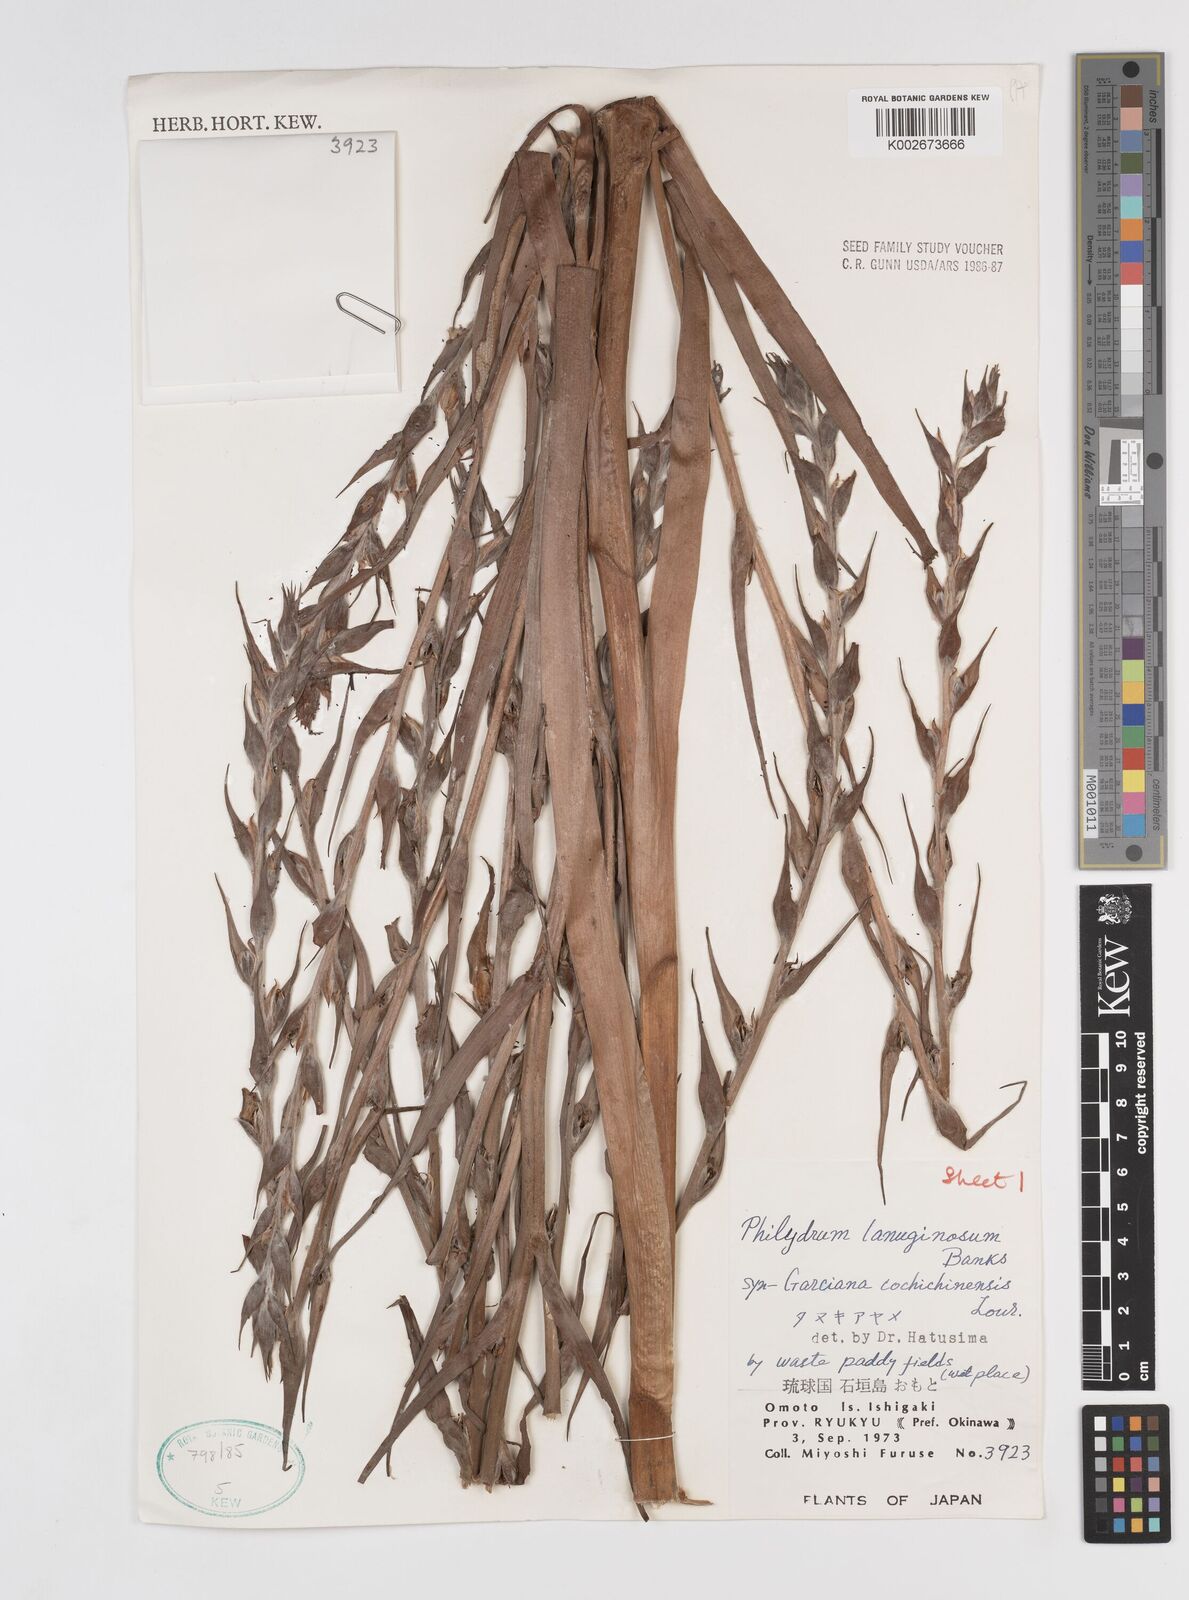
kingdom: Plantae
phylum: Tracheophyta
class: Liliopsida
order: Commelinales
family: Philydraceae
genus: Philydrum
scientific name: Philydrum lanuginosum
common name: Woolly frog's mouth
